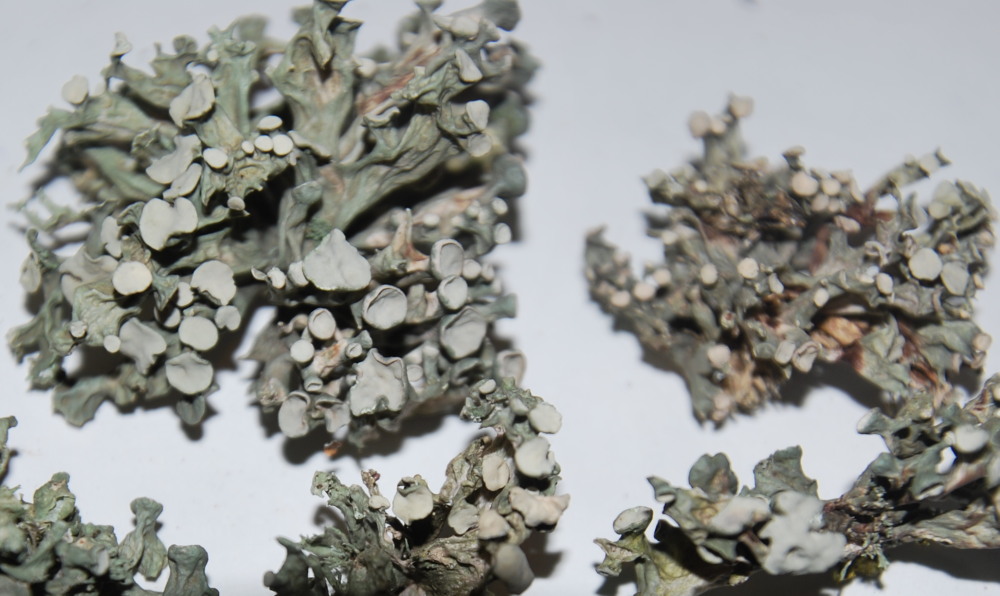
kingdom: Fungi
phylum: Ascomycota
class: Lecanoromycetes
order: Lecanorales
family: Ramalinaceae
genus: Ramalina
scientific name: Ramalina fastigiata
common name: tue-grenlav
